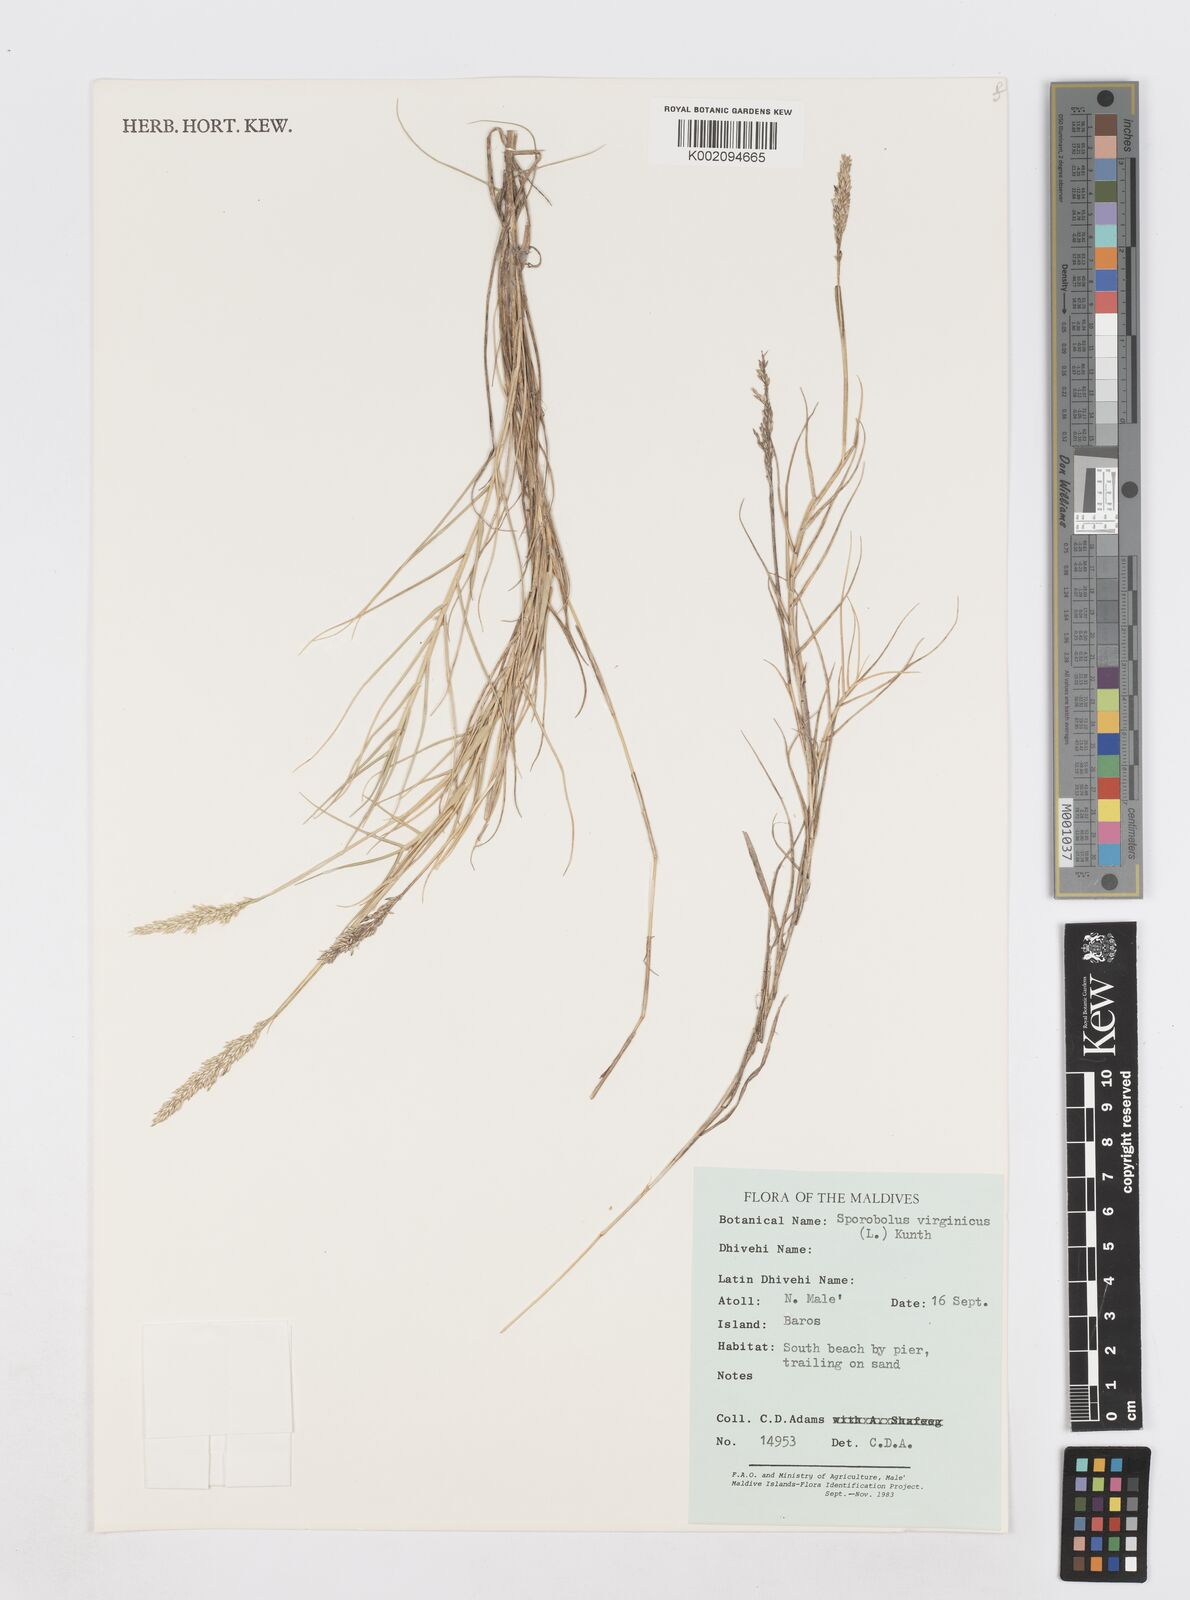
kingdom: Plantae
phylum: Tracheophyta
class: Liliopsida
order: Poales
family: Poaceae
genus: Sporobolus
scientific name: Sporobolus virginicus
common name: Beach dropseed
